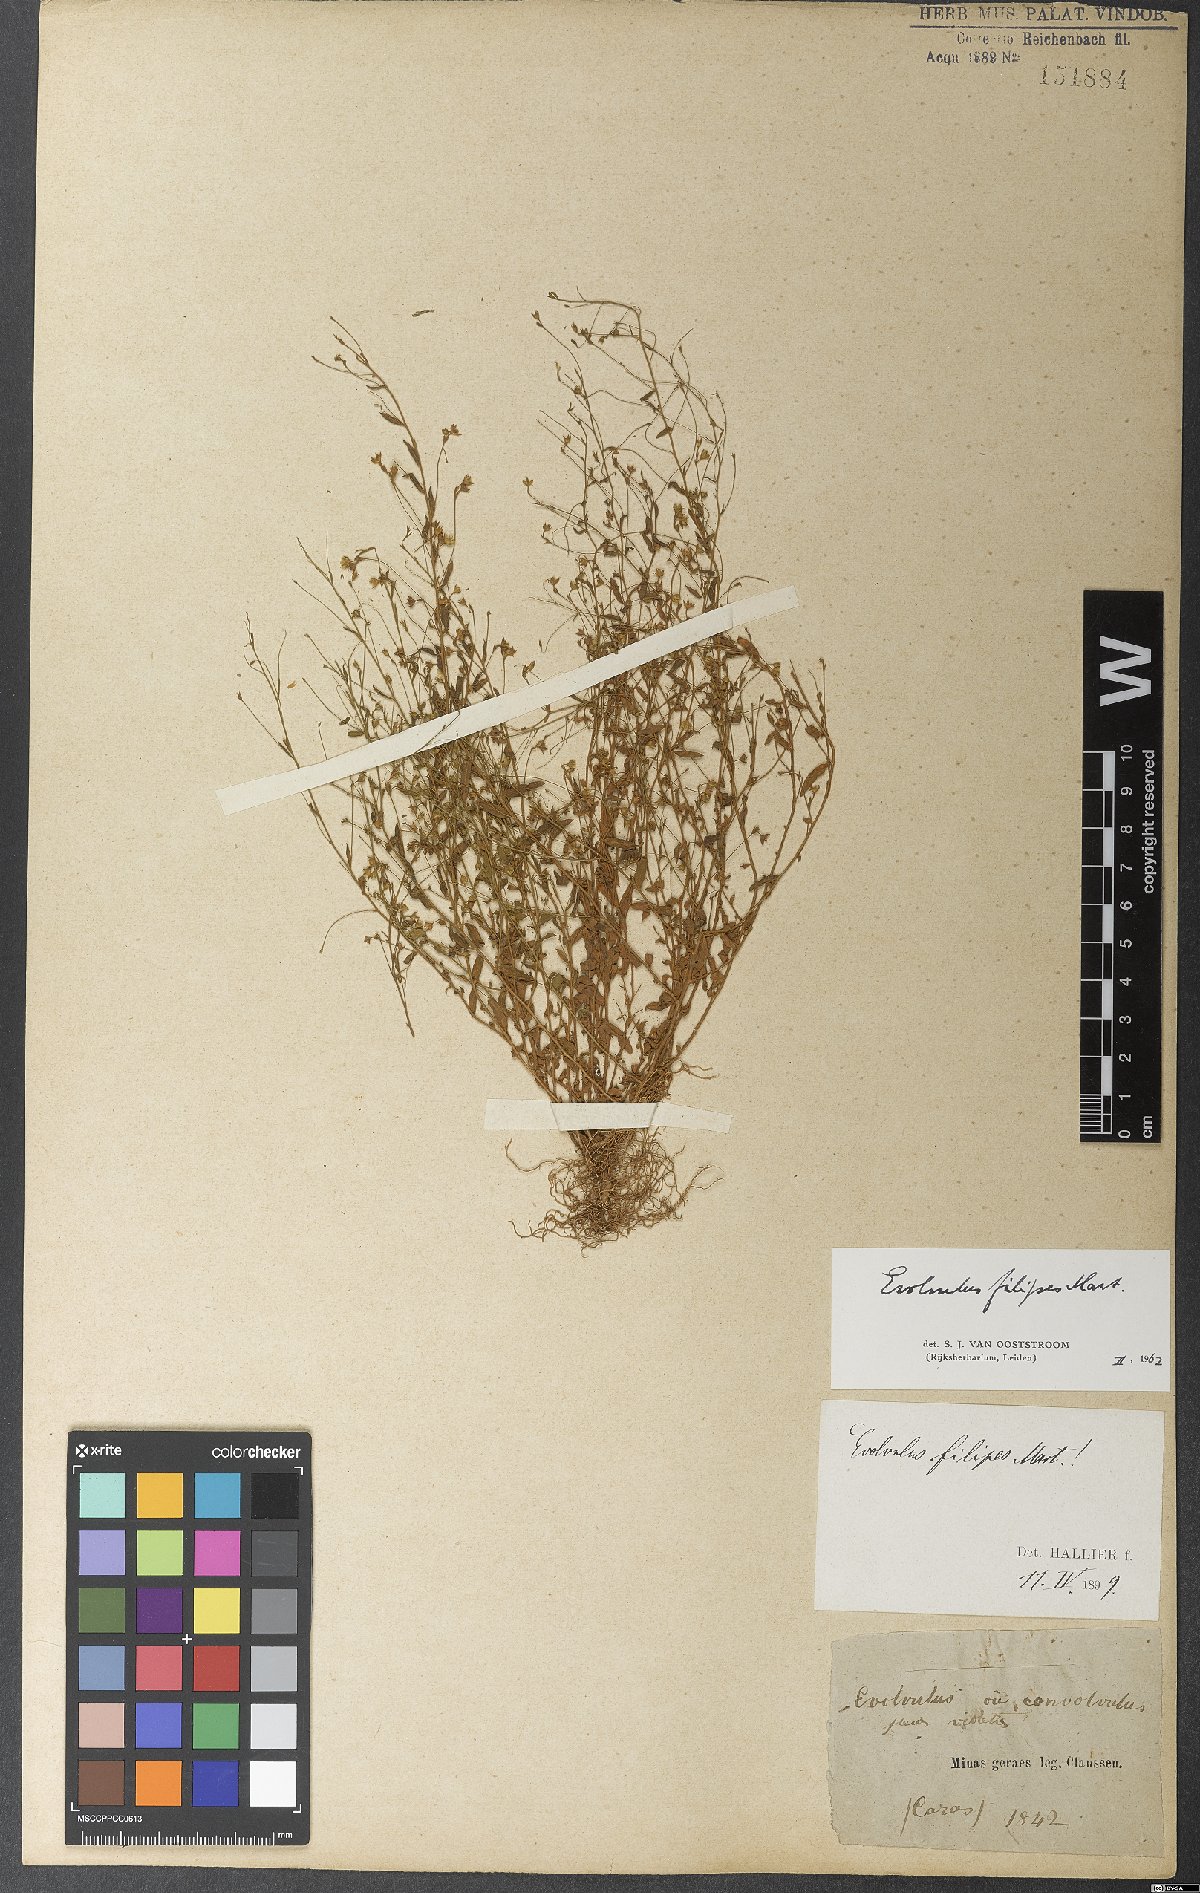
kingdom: Plantae
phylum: Tracheophyta
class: Magnoliopsida
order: Solanales
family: Convolvulaceae
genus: Evolvulus
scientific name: Evolvulus filipes
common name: Maryland dwarf morning-glory
